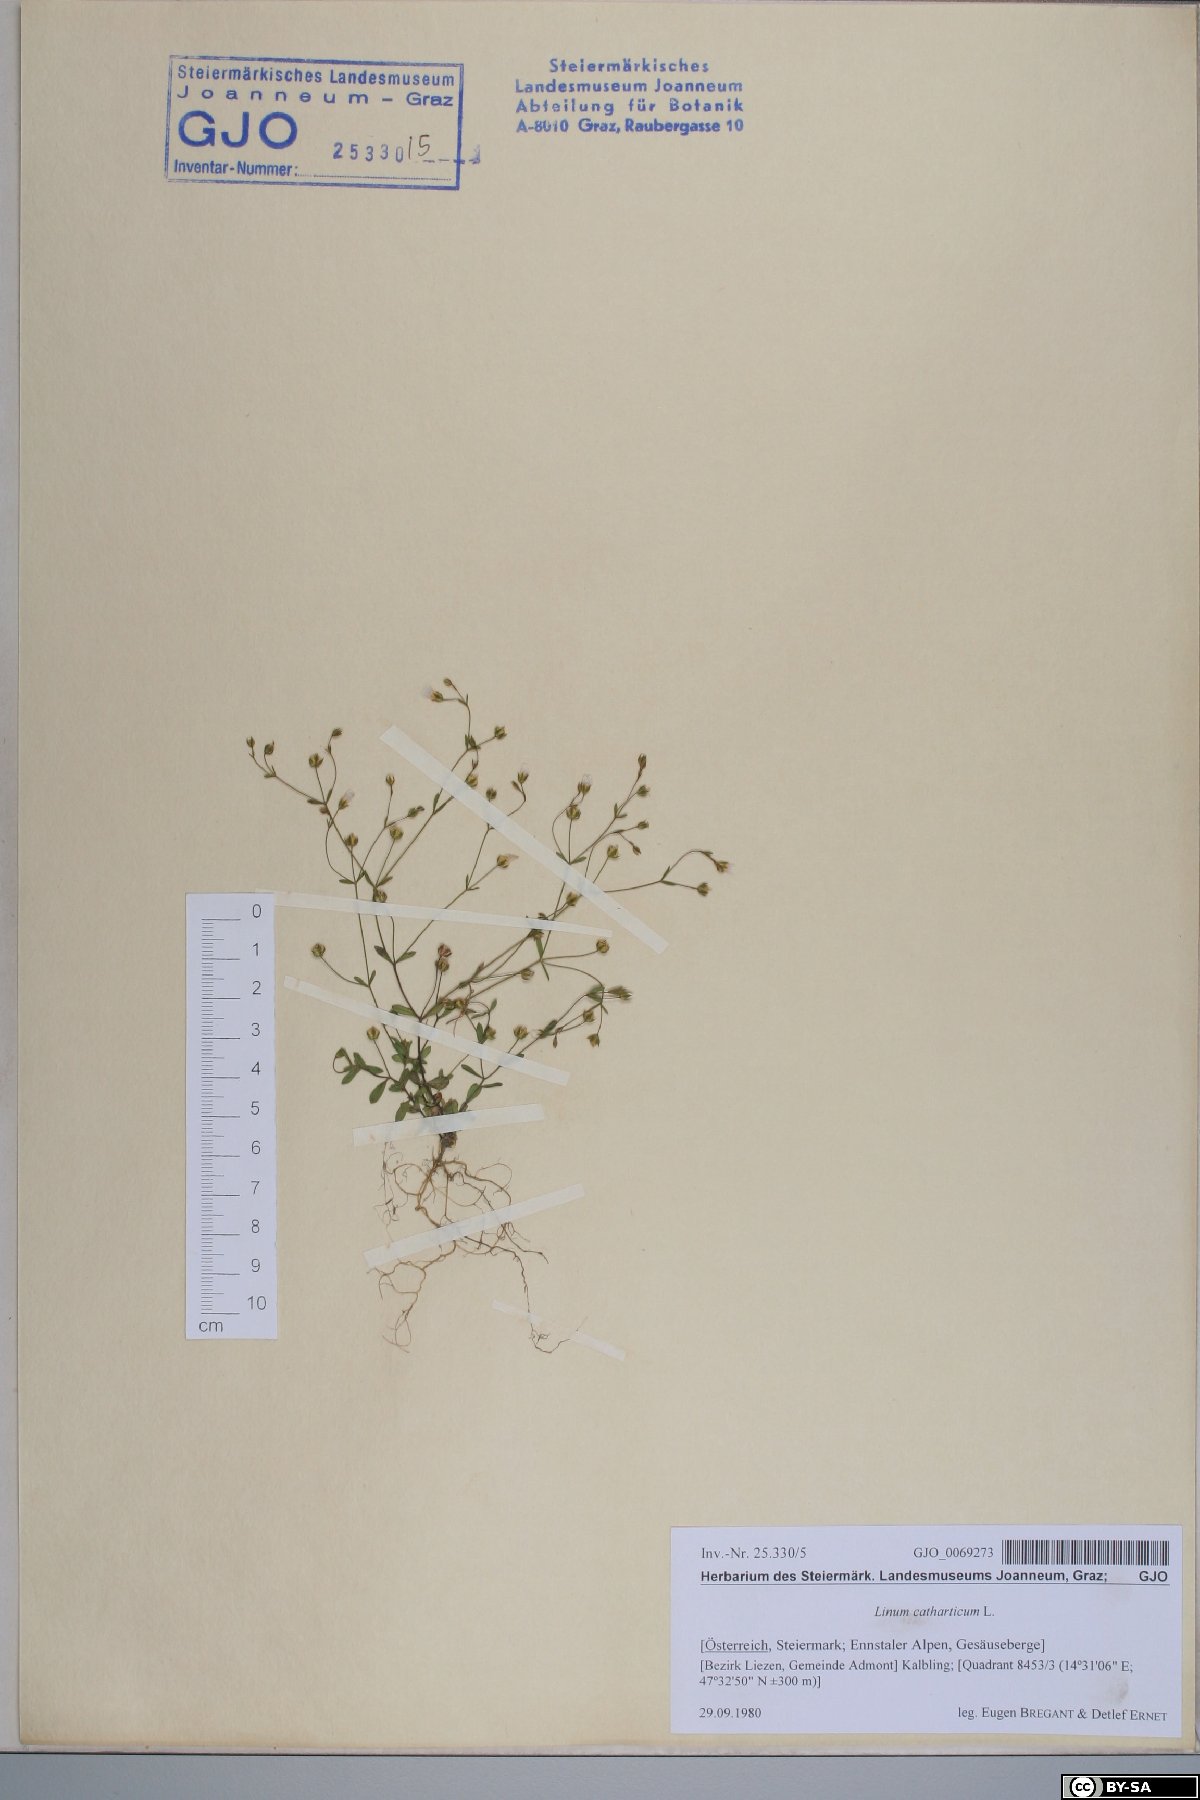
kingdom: Plantae
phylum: Tracheophyta
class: Magnoliopsida
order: Malpighiales
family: Linaceae
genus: Linum
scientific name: Linum catharticum
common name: Fairy flax
